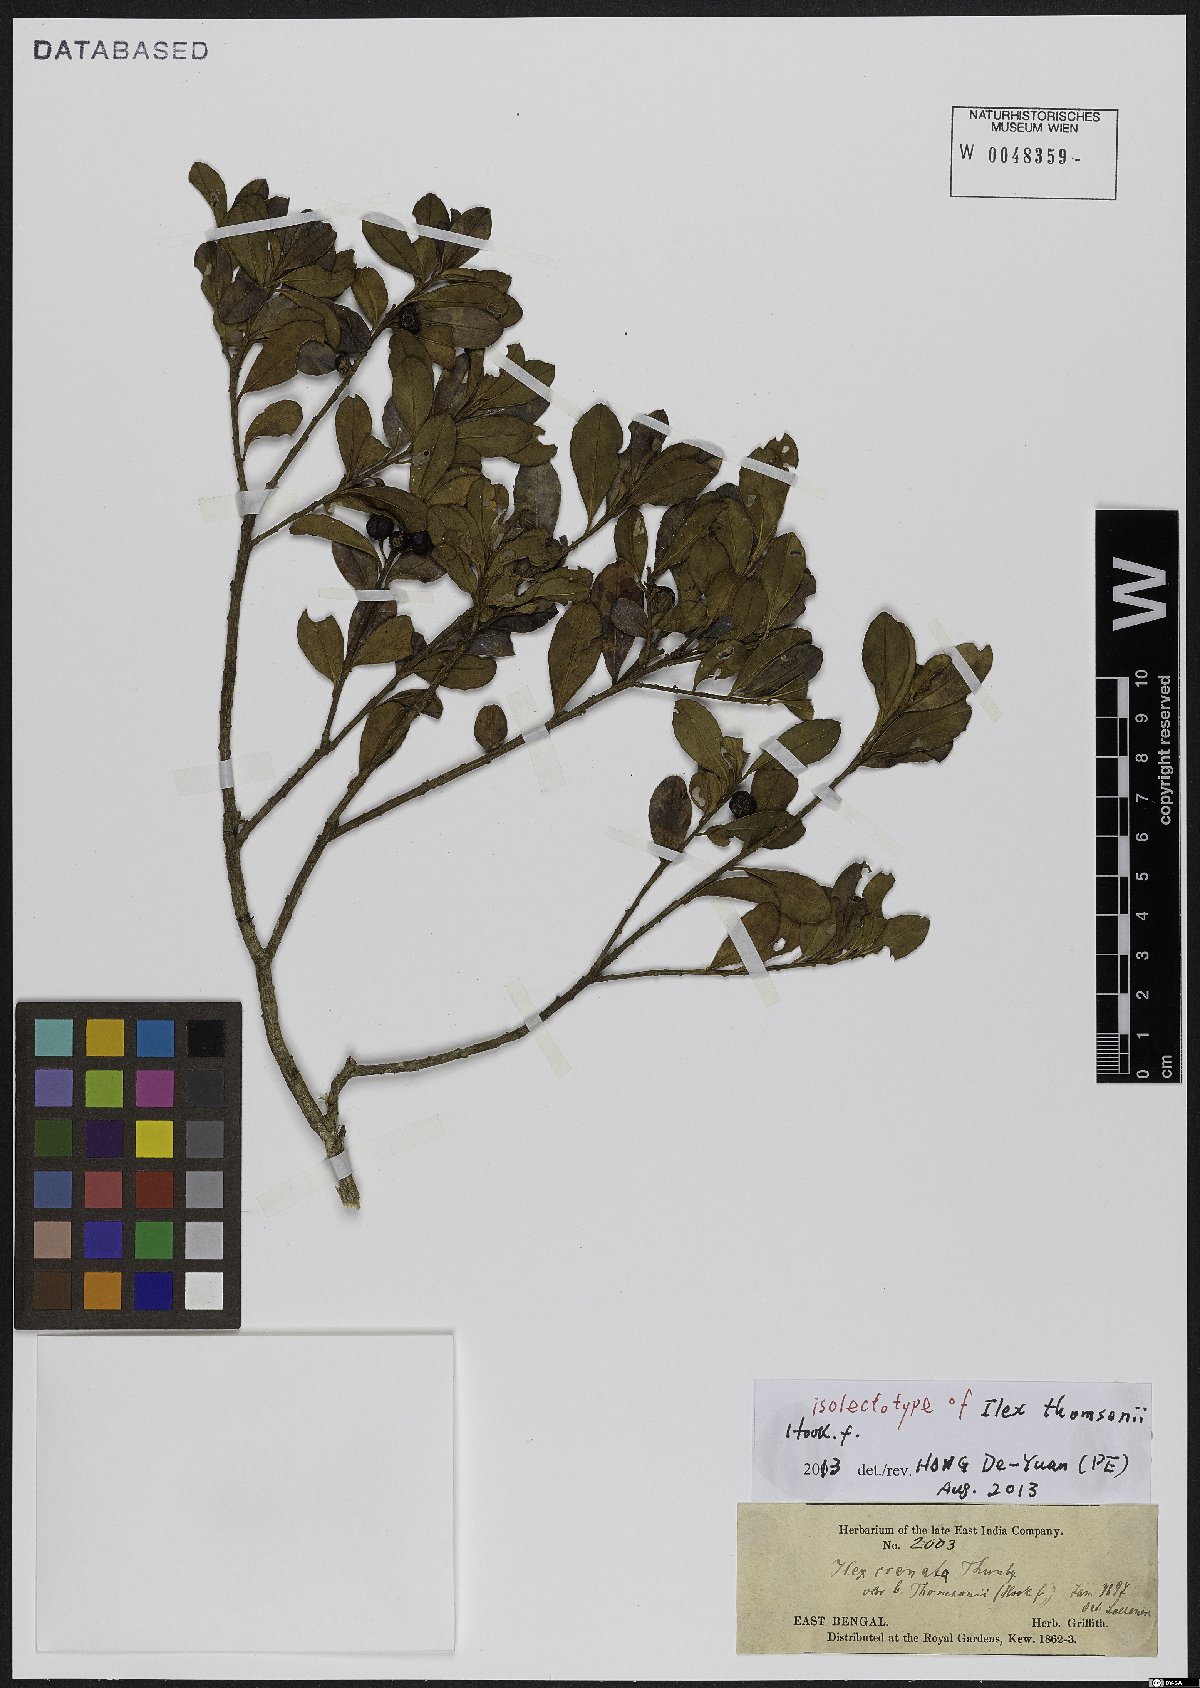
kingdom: Plantae
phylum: Tracheophyta
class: Magnoliopsida
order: Aquifoliales
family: Aquifoliaceae
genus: Ilex
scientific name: Ilex crenata
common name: Japanese holly
